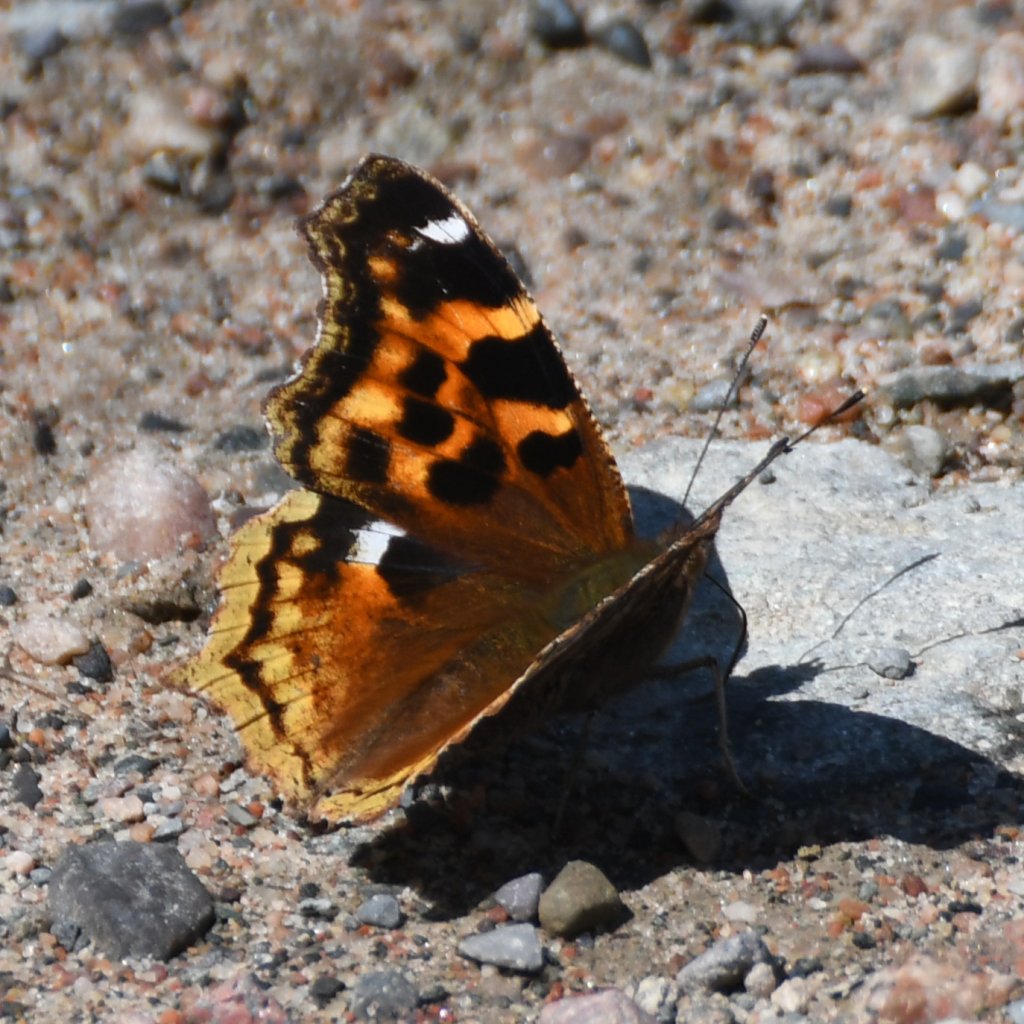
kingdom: Animalia
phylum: Arthropoda
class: Insecta
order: Lepidoptera
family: Nymphalidae
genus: Polygonia
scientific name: Polygonia vaualbum
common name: Compton Tortoiseshell
